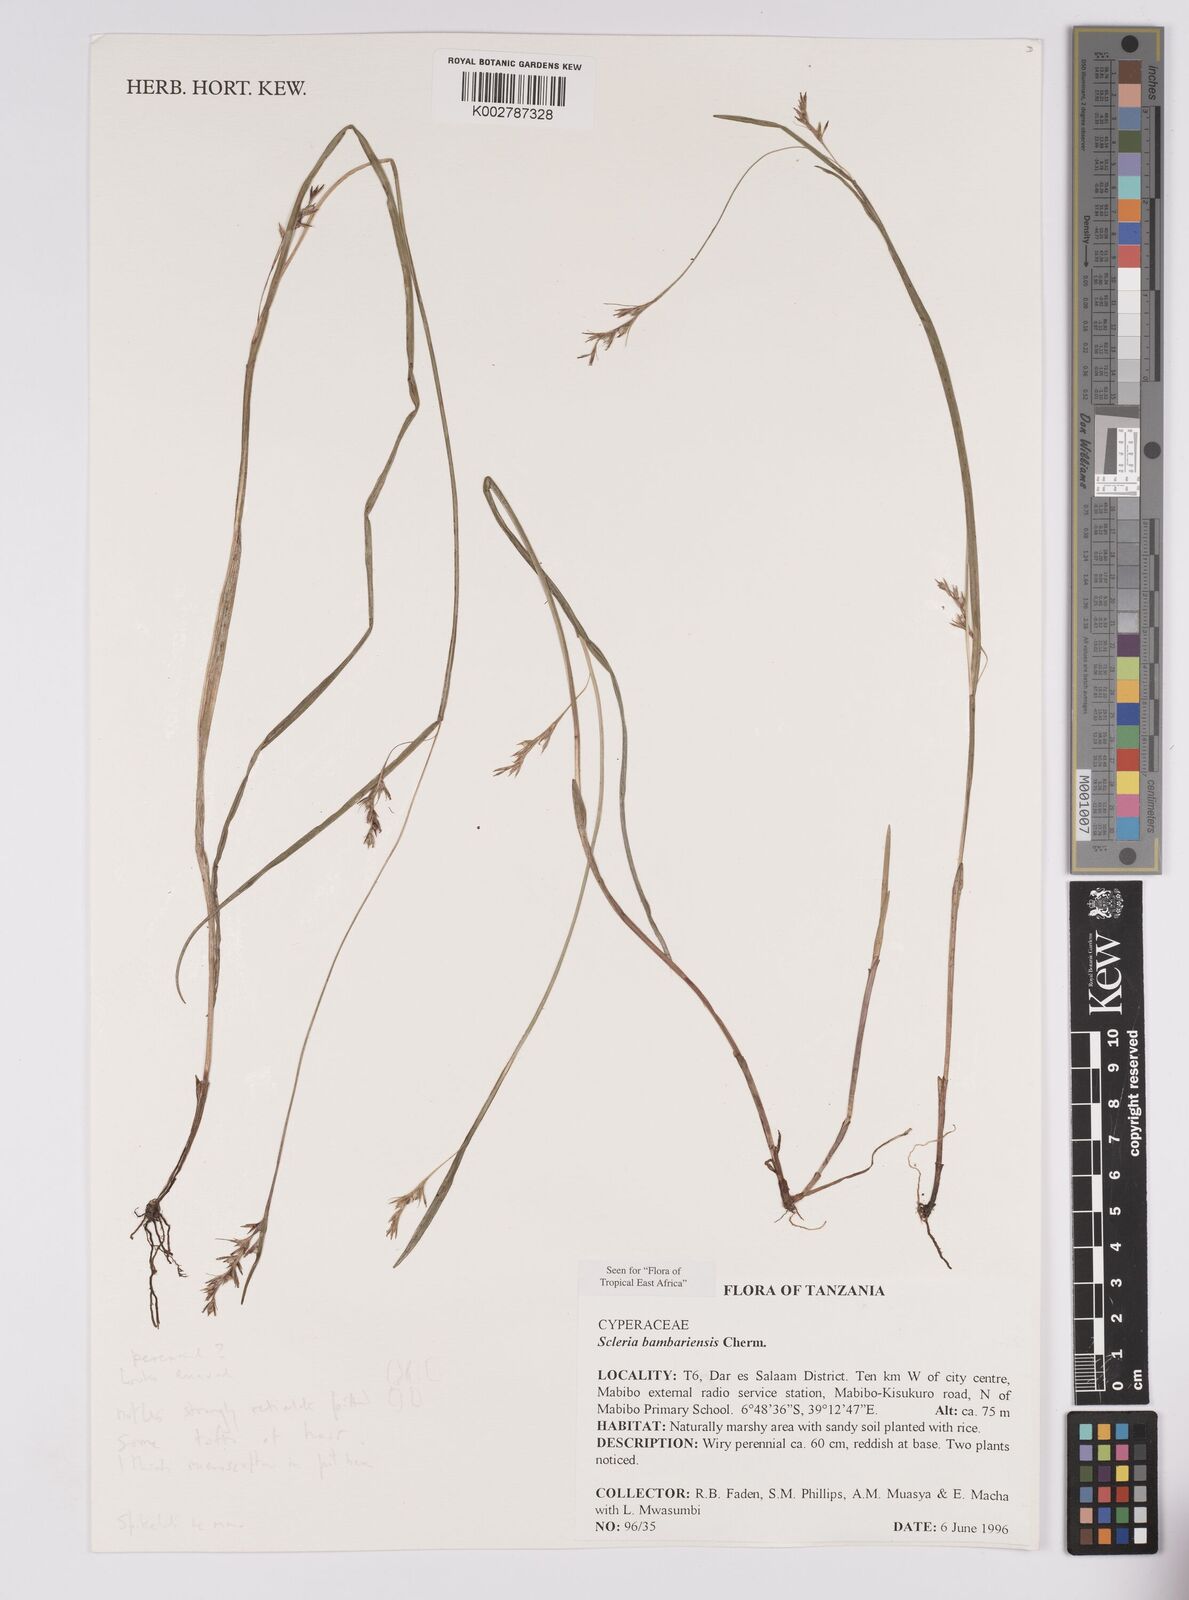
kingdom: Plantae
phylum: Tracheophyta
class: Liliopsida
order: Poales
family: Cyperaceae
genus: Scleria
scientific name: Scleria bambariensis
